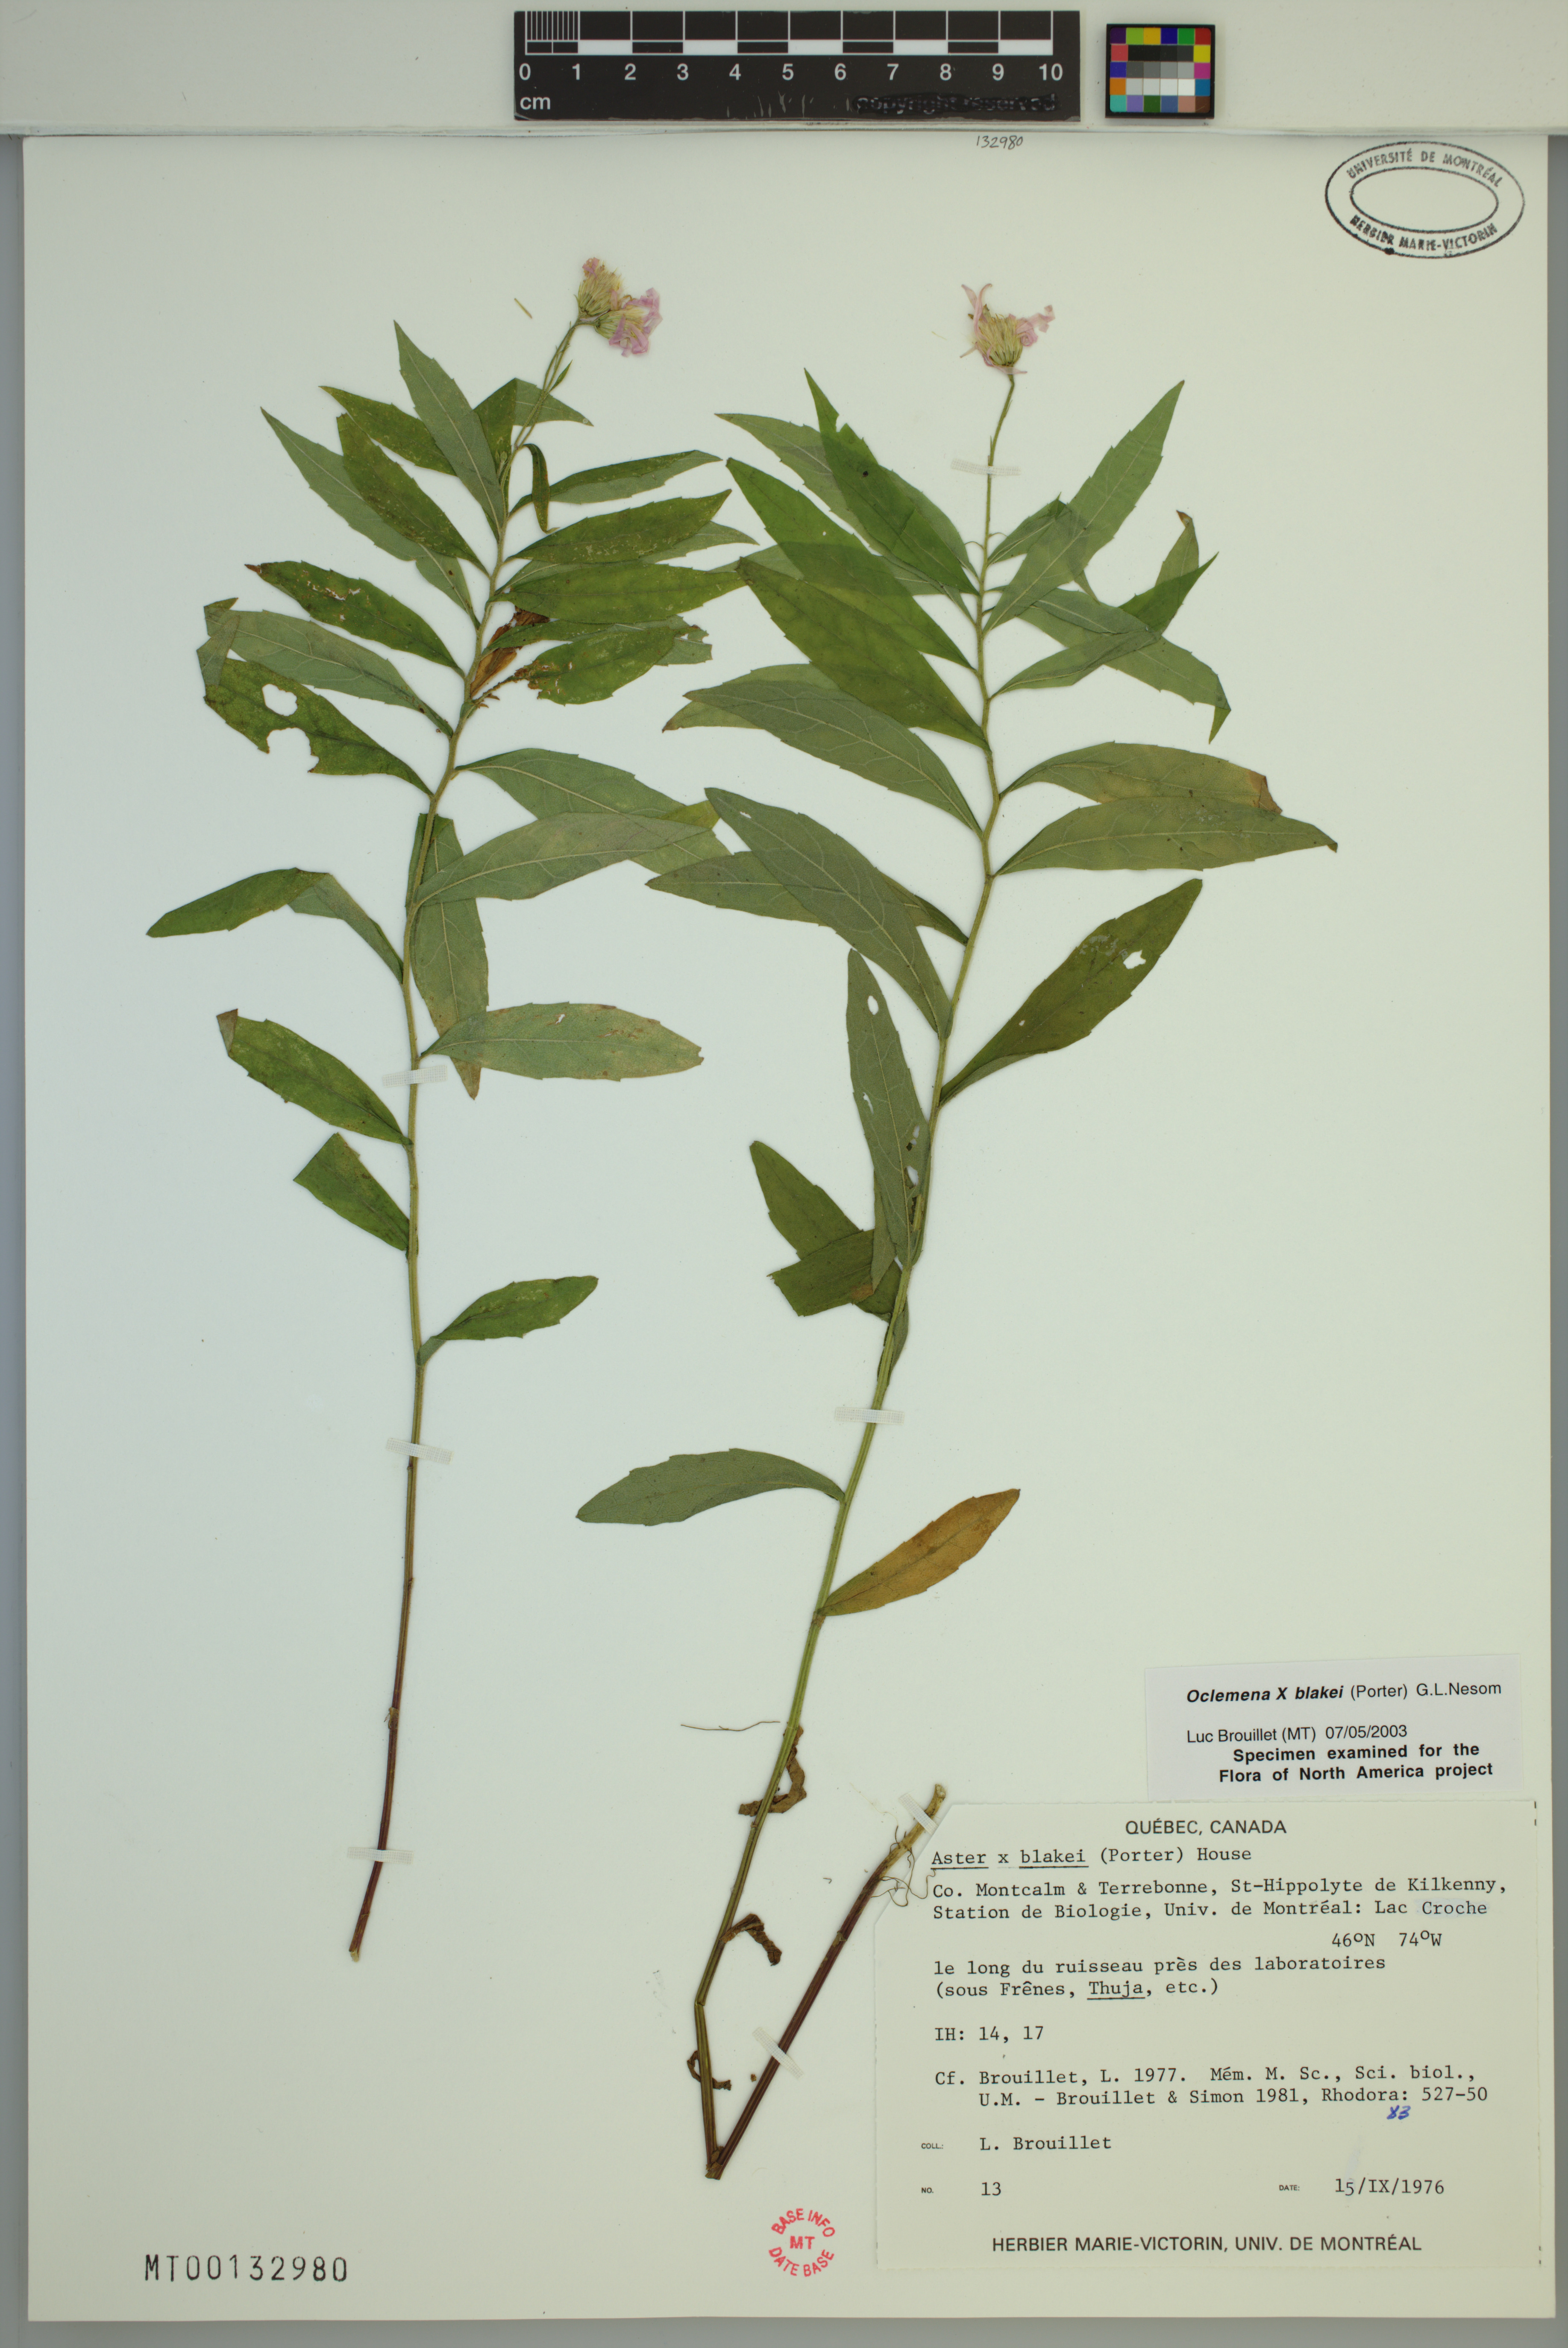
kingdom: Plantae
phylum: Tracheophyta
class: Magnoliopsida
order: Asterales
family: Asteraceae
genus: Oclemena
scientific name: Oclemena blakei
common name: Blake's aster
